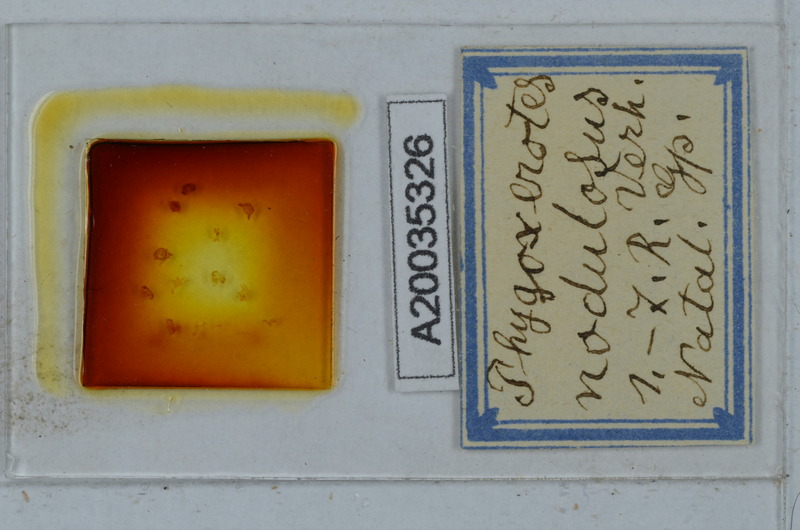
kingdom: Animalia
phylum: Arthropoda
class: Diplopoda
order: Polydesmida
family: Vaalogonopodidae
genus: Phygoxerotes
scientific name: Phygoxerotes nodulosus
